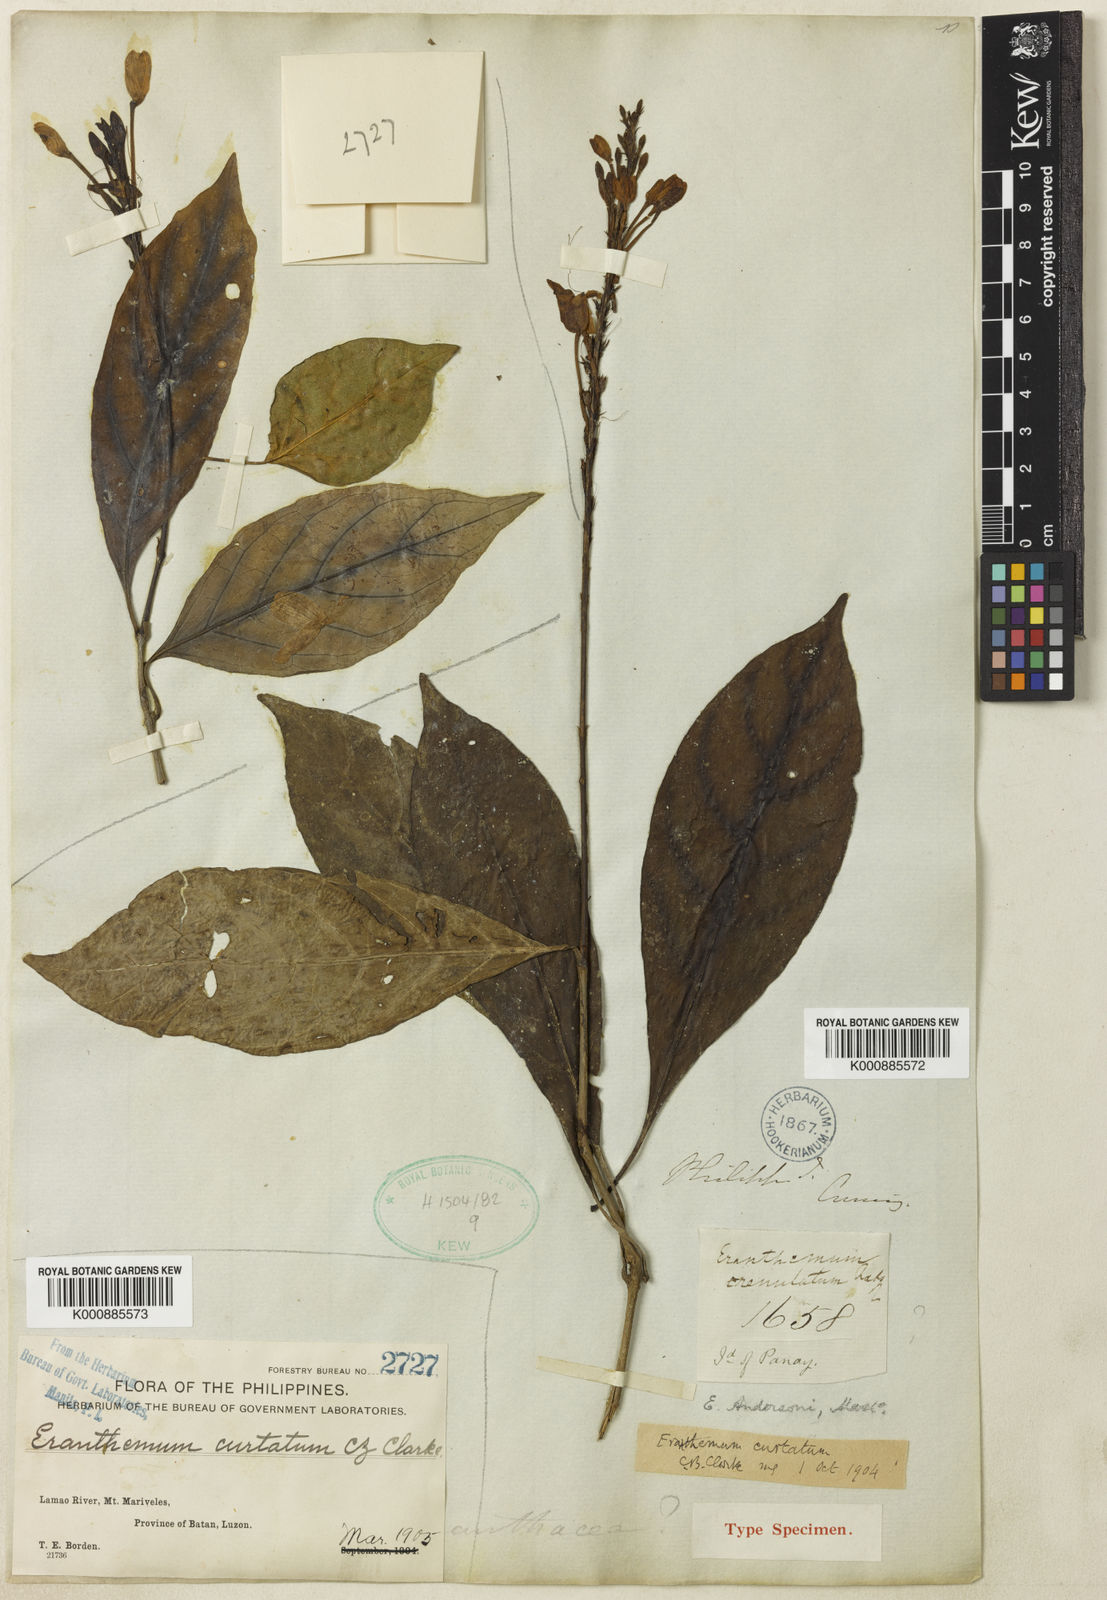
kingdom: Plantae
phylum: Tracheophyta
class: Magnoliopsida
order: Lamiales
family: Acanthaceae
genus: Pseuderanthemum
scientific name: Pseuderanthemum curtatum
